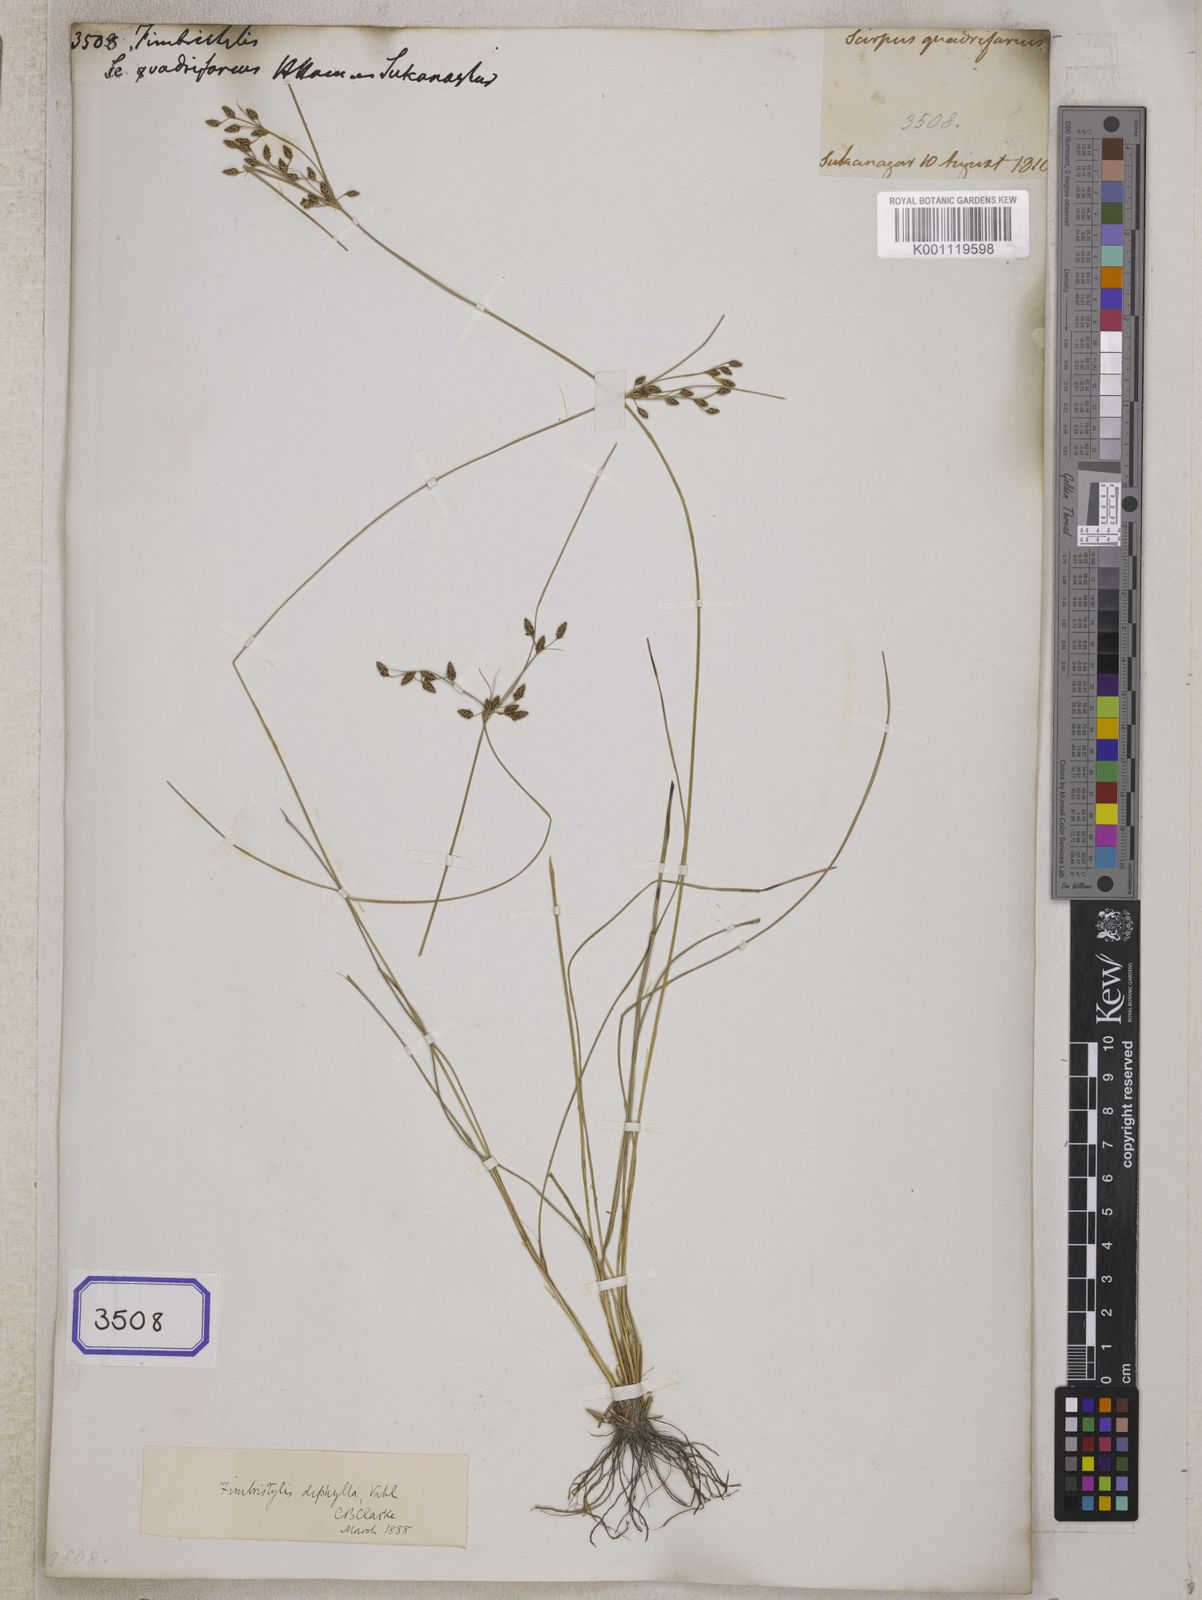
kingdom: Plantae
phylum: Tracheophyta
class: Liliopsida
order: Poales
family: Cyperaceae
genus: Fimbristylis
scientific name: Fimbristylis
